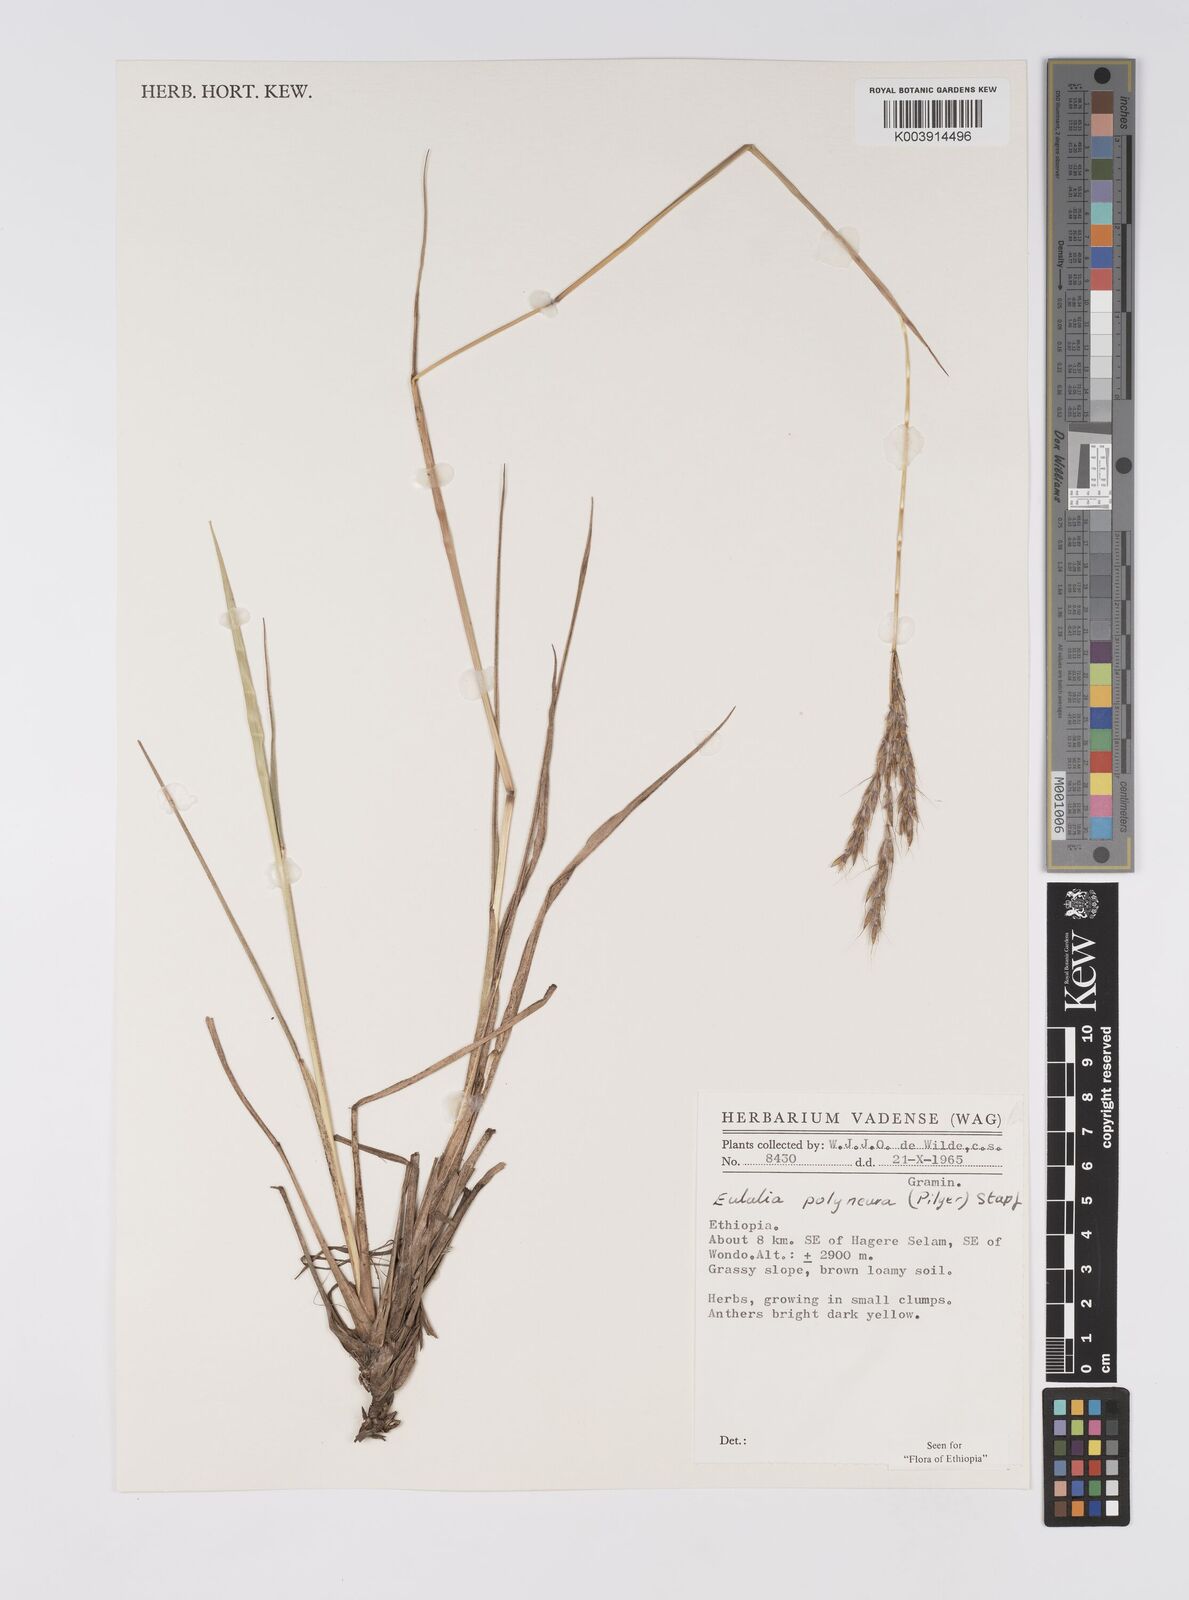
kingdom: Plantae
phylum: Tracheophyta
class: Liliopsida
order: Poales
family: Poaceae
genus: Eulalia
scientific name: Eulalia polyneura
